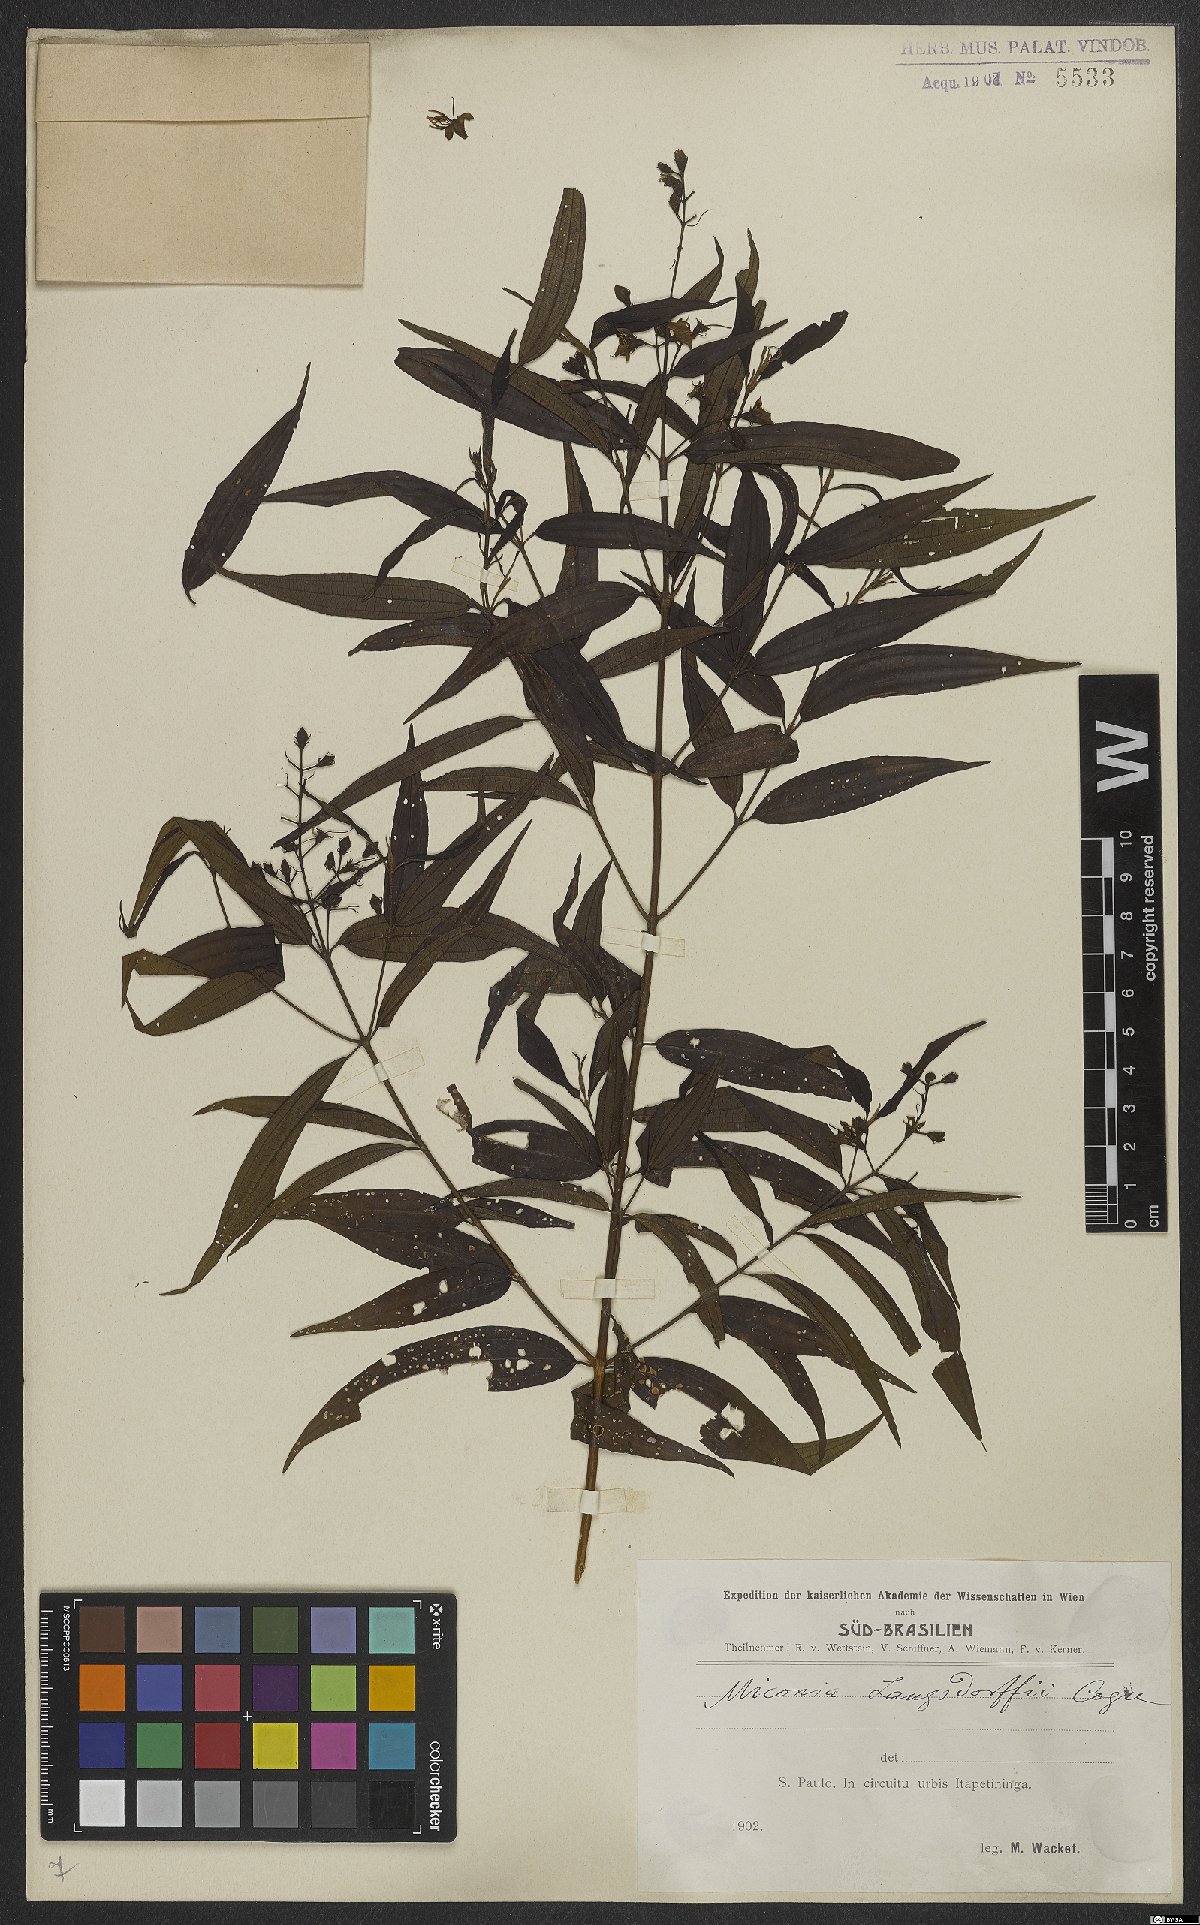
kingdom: Plantae
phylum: Tracheophyta
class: Magnoliopsida
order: Myrtales
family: Melastomataceae
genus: Miconia
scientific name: Miconia langsdorffii
